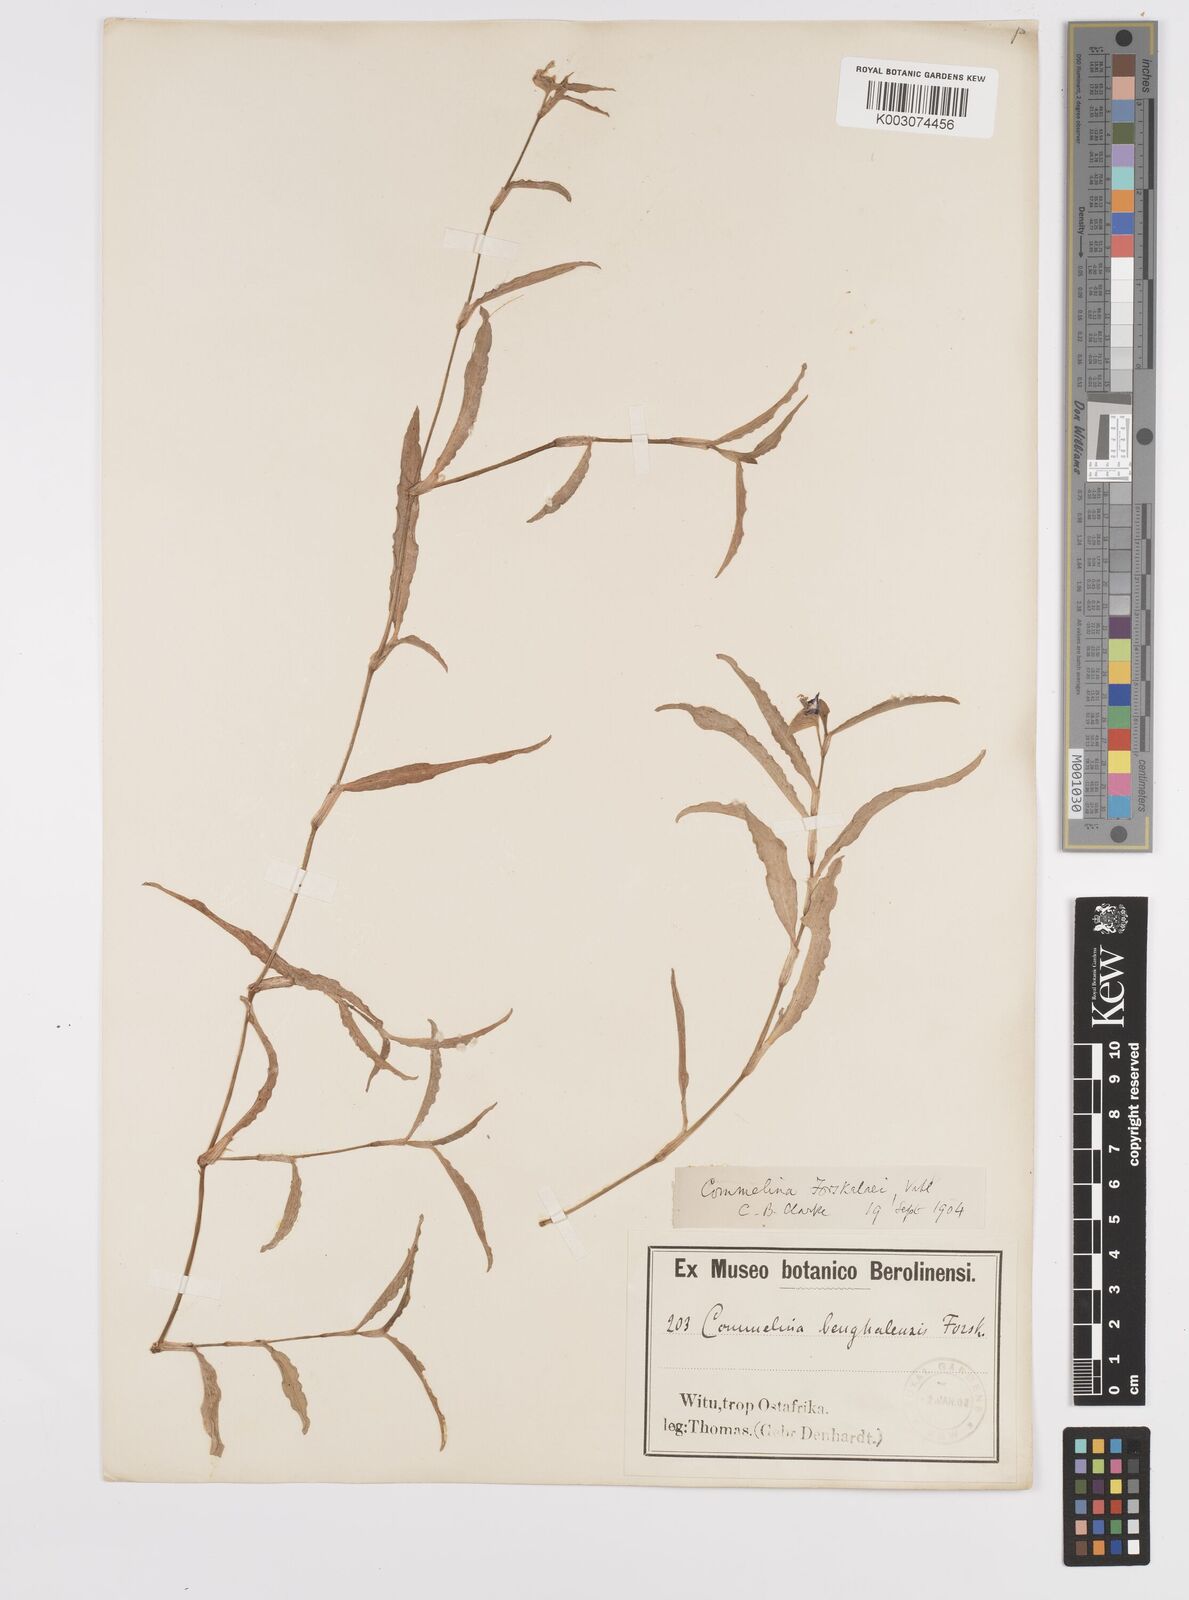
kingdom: Plantae
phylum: Tracheophyta
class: Liliopsida
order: Commelinales
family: Commelinaceae
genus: Commelina
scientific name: Commelina
